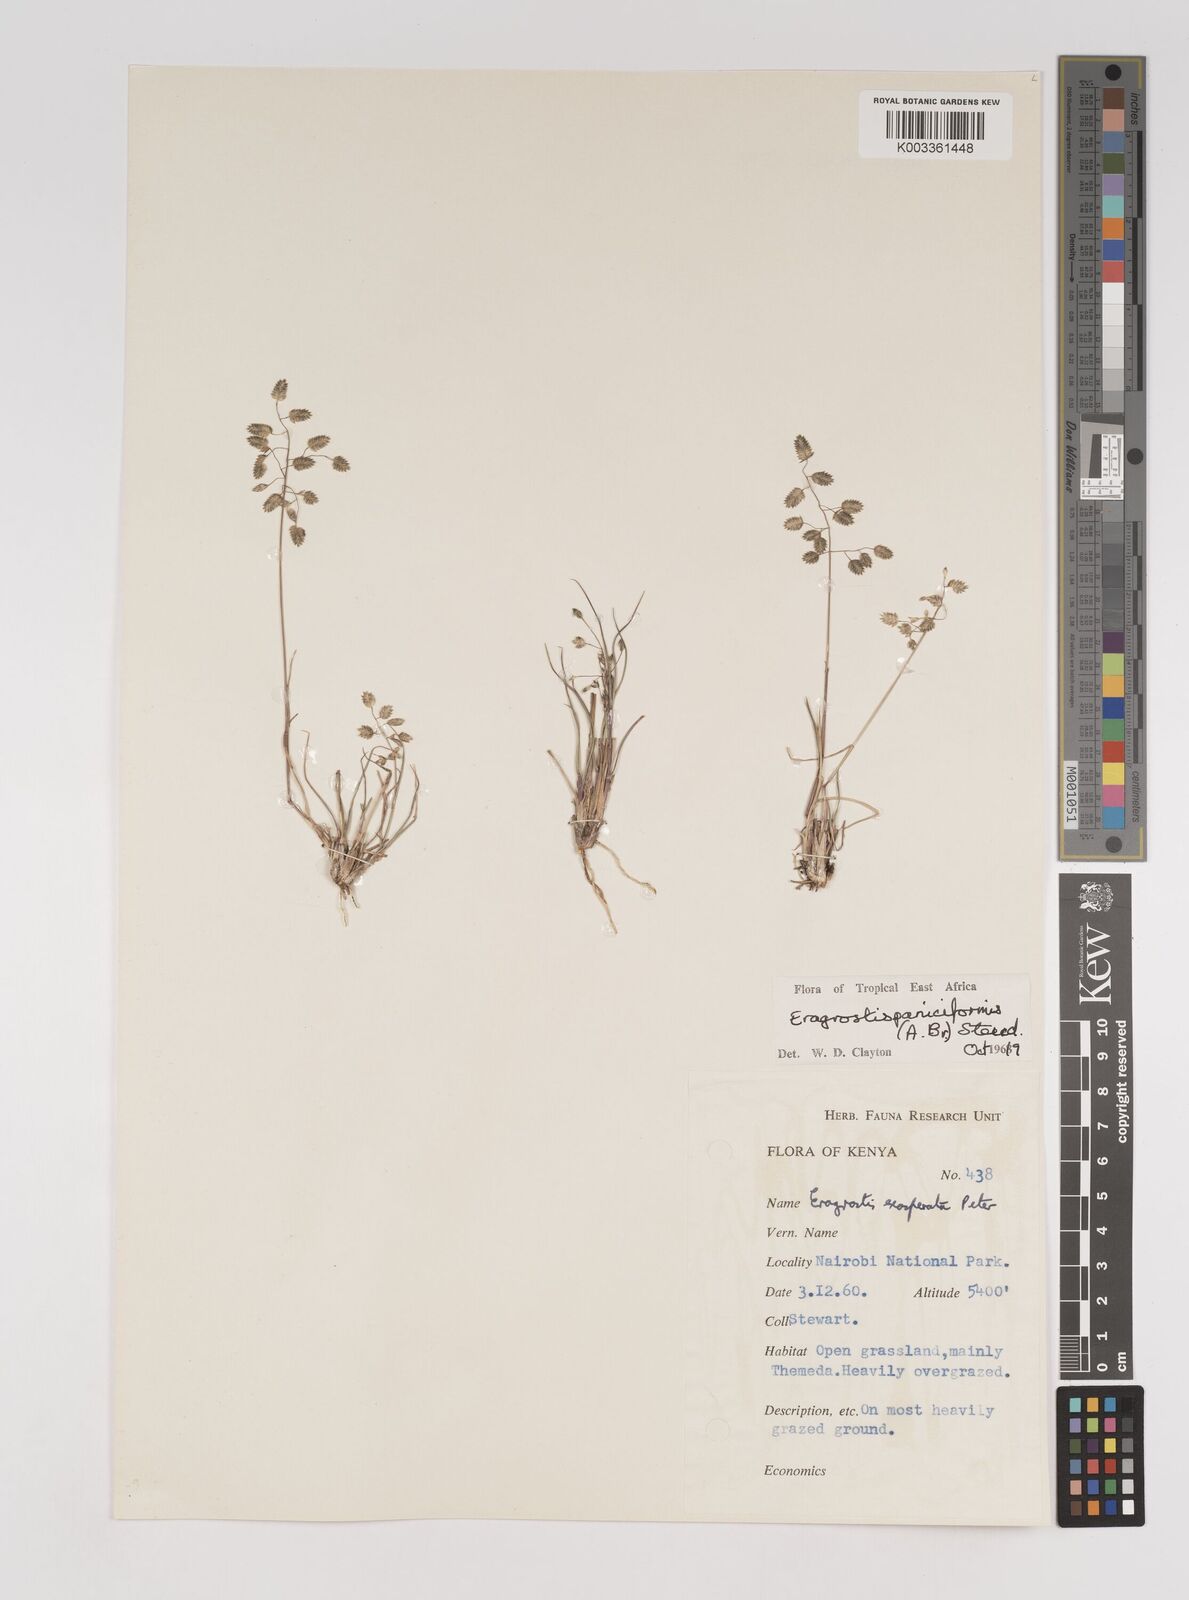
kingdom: Plantae
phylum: Tracheophyta
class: Liliopsida
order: Poales
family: Poaceae
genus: Eragrostis
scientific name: Eragrostis paniciformis
